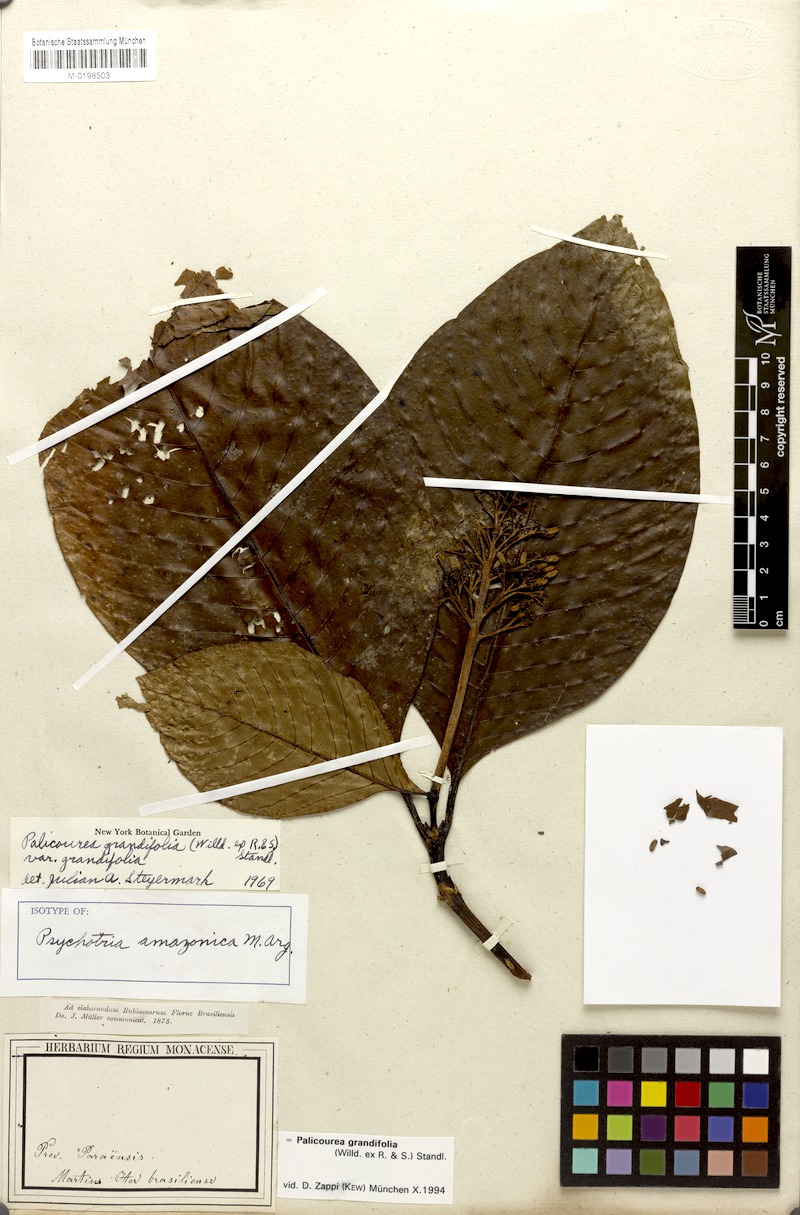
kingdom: Plantae
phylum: Tracheophyta
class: Magnoliopsida
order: Gentianales
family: Rubiaceae
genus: Palicourea
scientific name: Palicourea grandifolia
